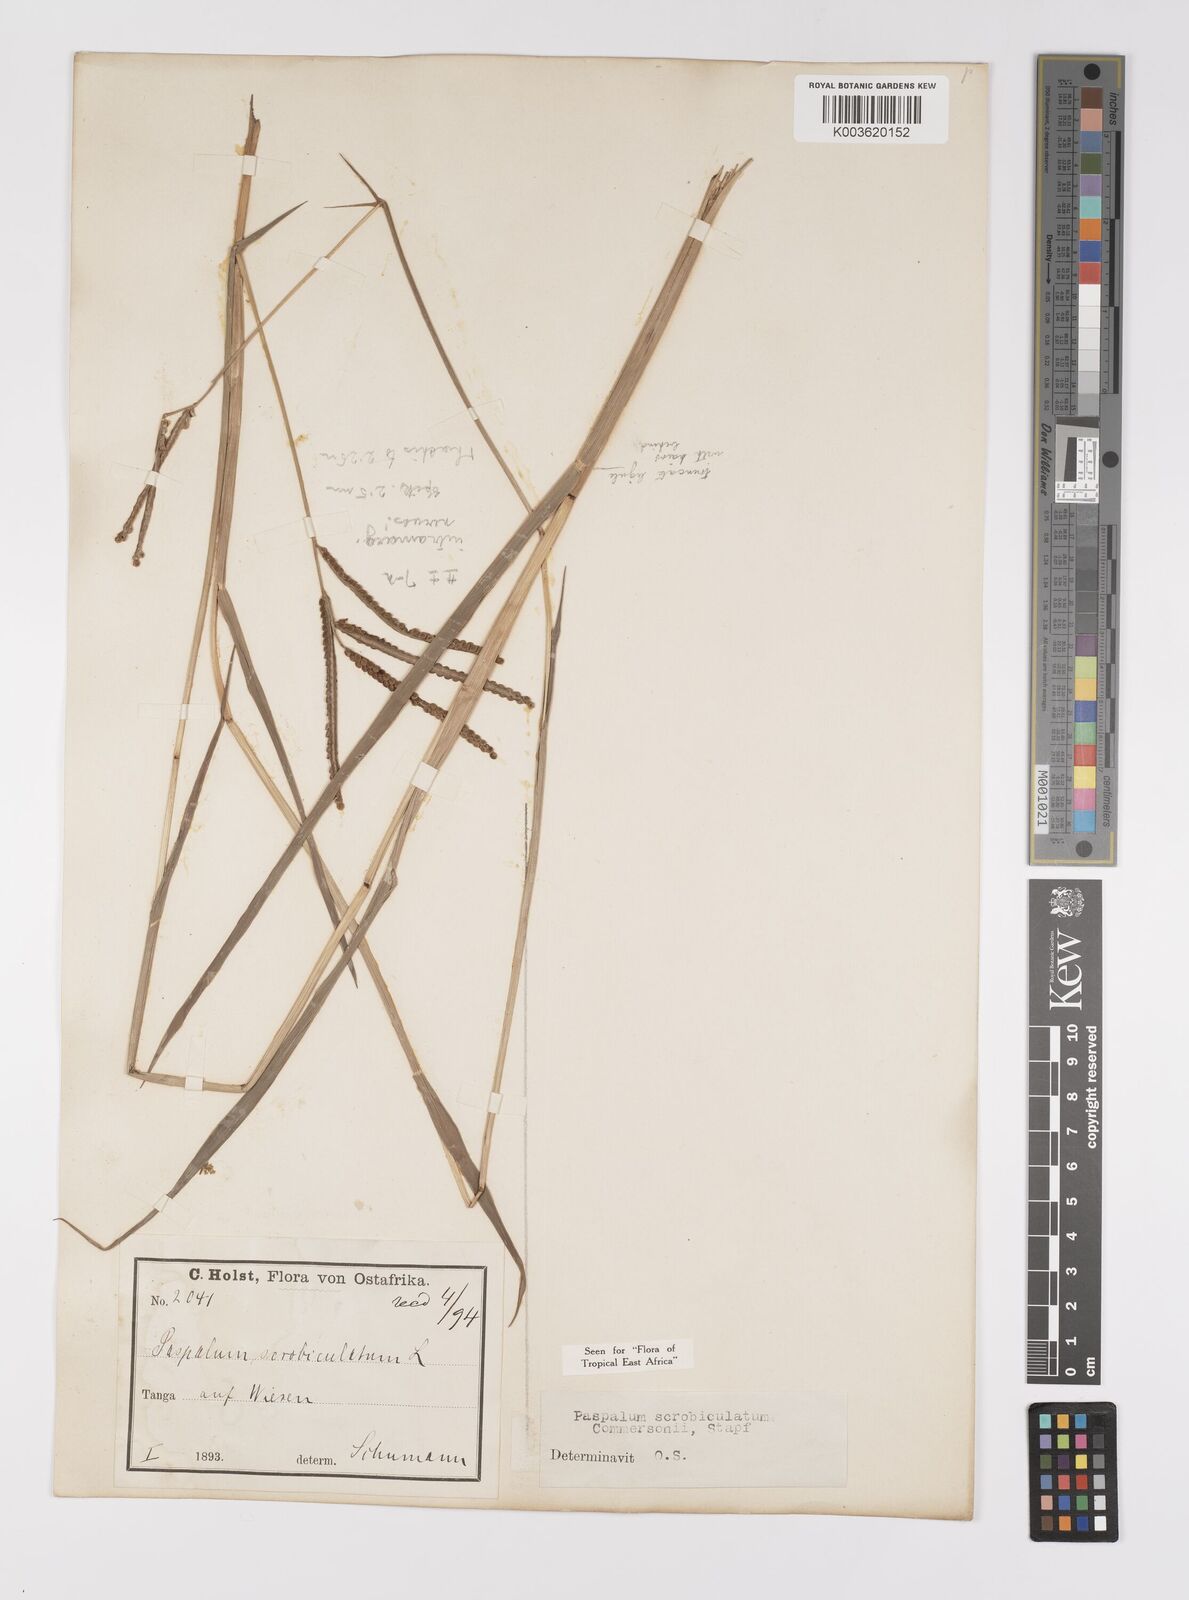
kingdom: Plantae
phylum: Tracheophyta
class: Liliopsida
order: Poales
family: Poaceae
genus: Paspalum
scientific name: Paspalum scrobiculatum
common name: Kodo millet
